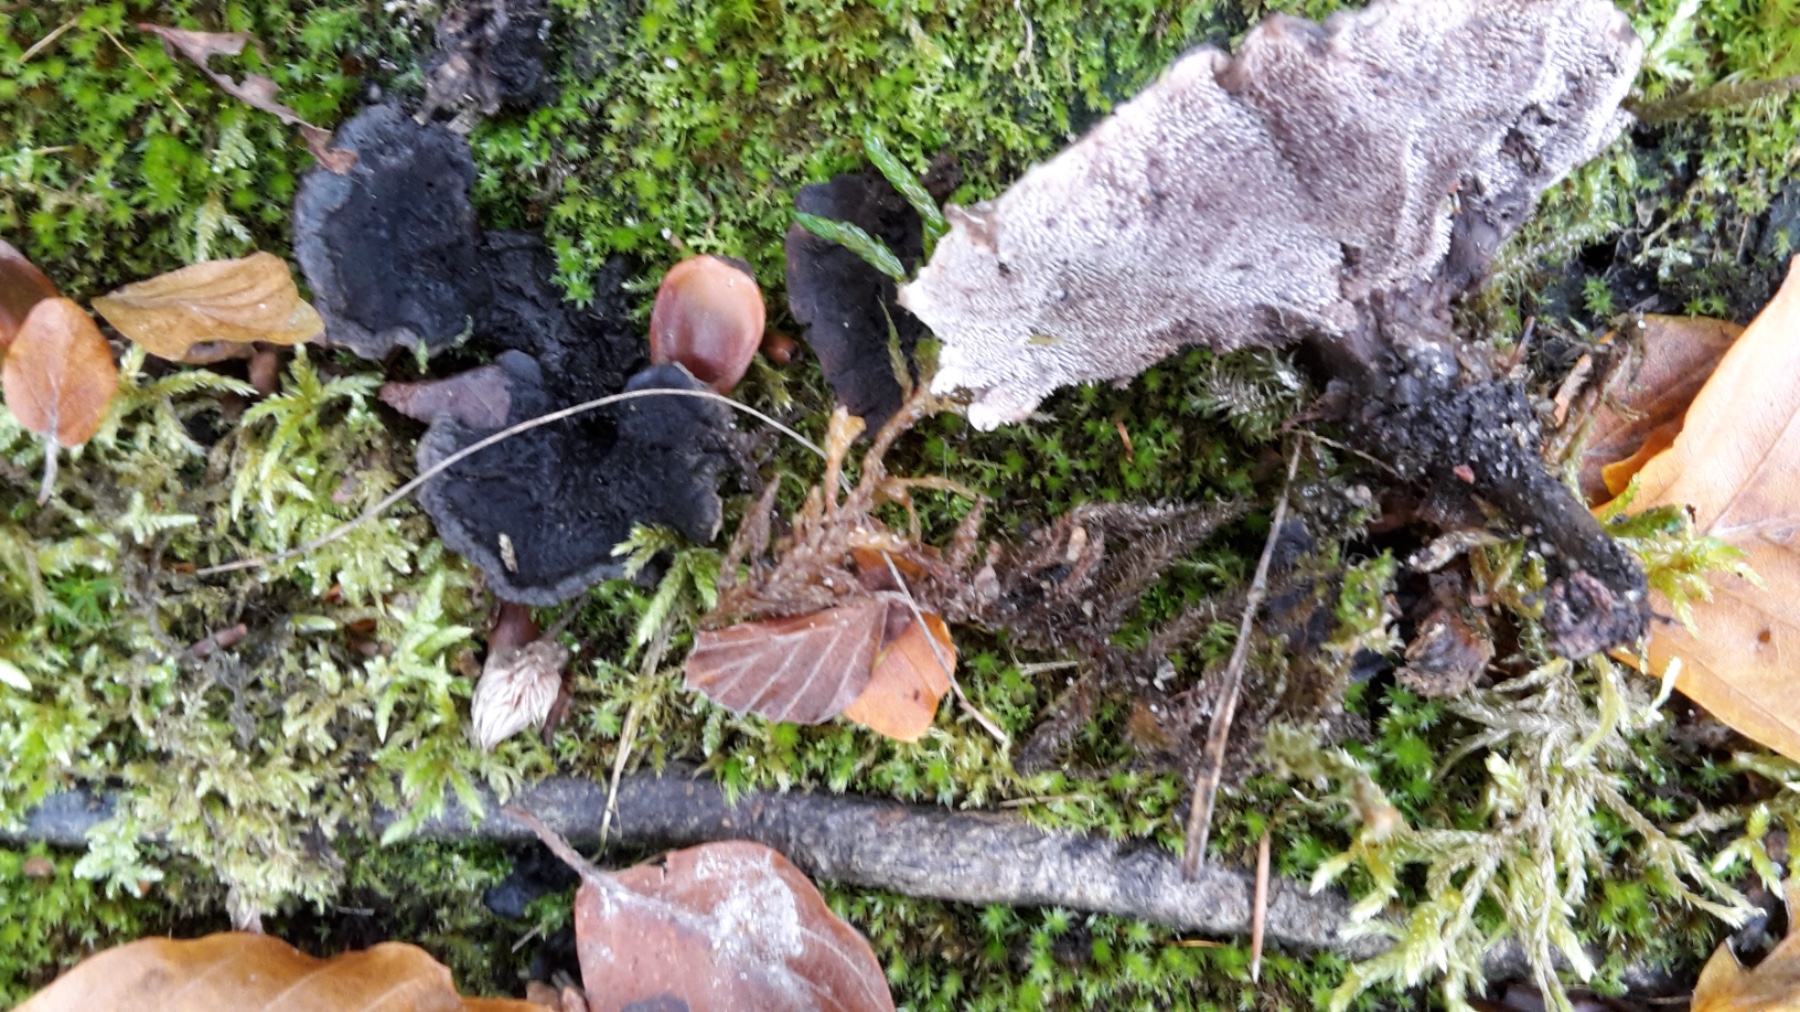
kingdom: Fungi
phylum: Basidiomycota
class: Agaricomycetes
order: Thelephorales
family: Thelephoraceae
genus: Phellodon
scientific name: Phellodon confluens
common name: pjaltet duftpigsvamp
